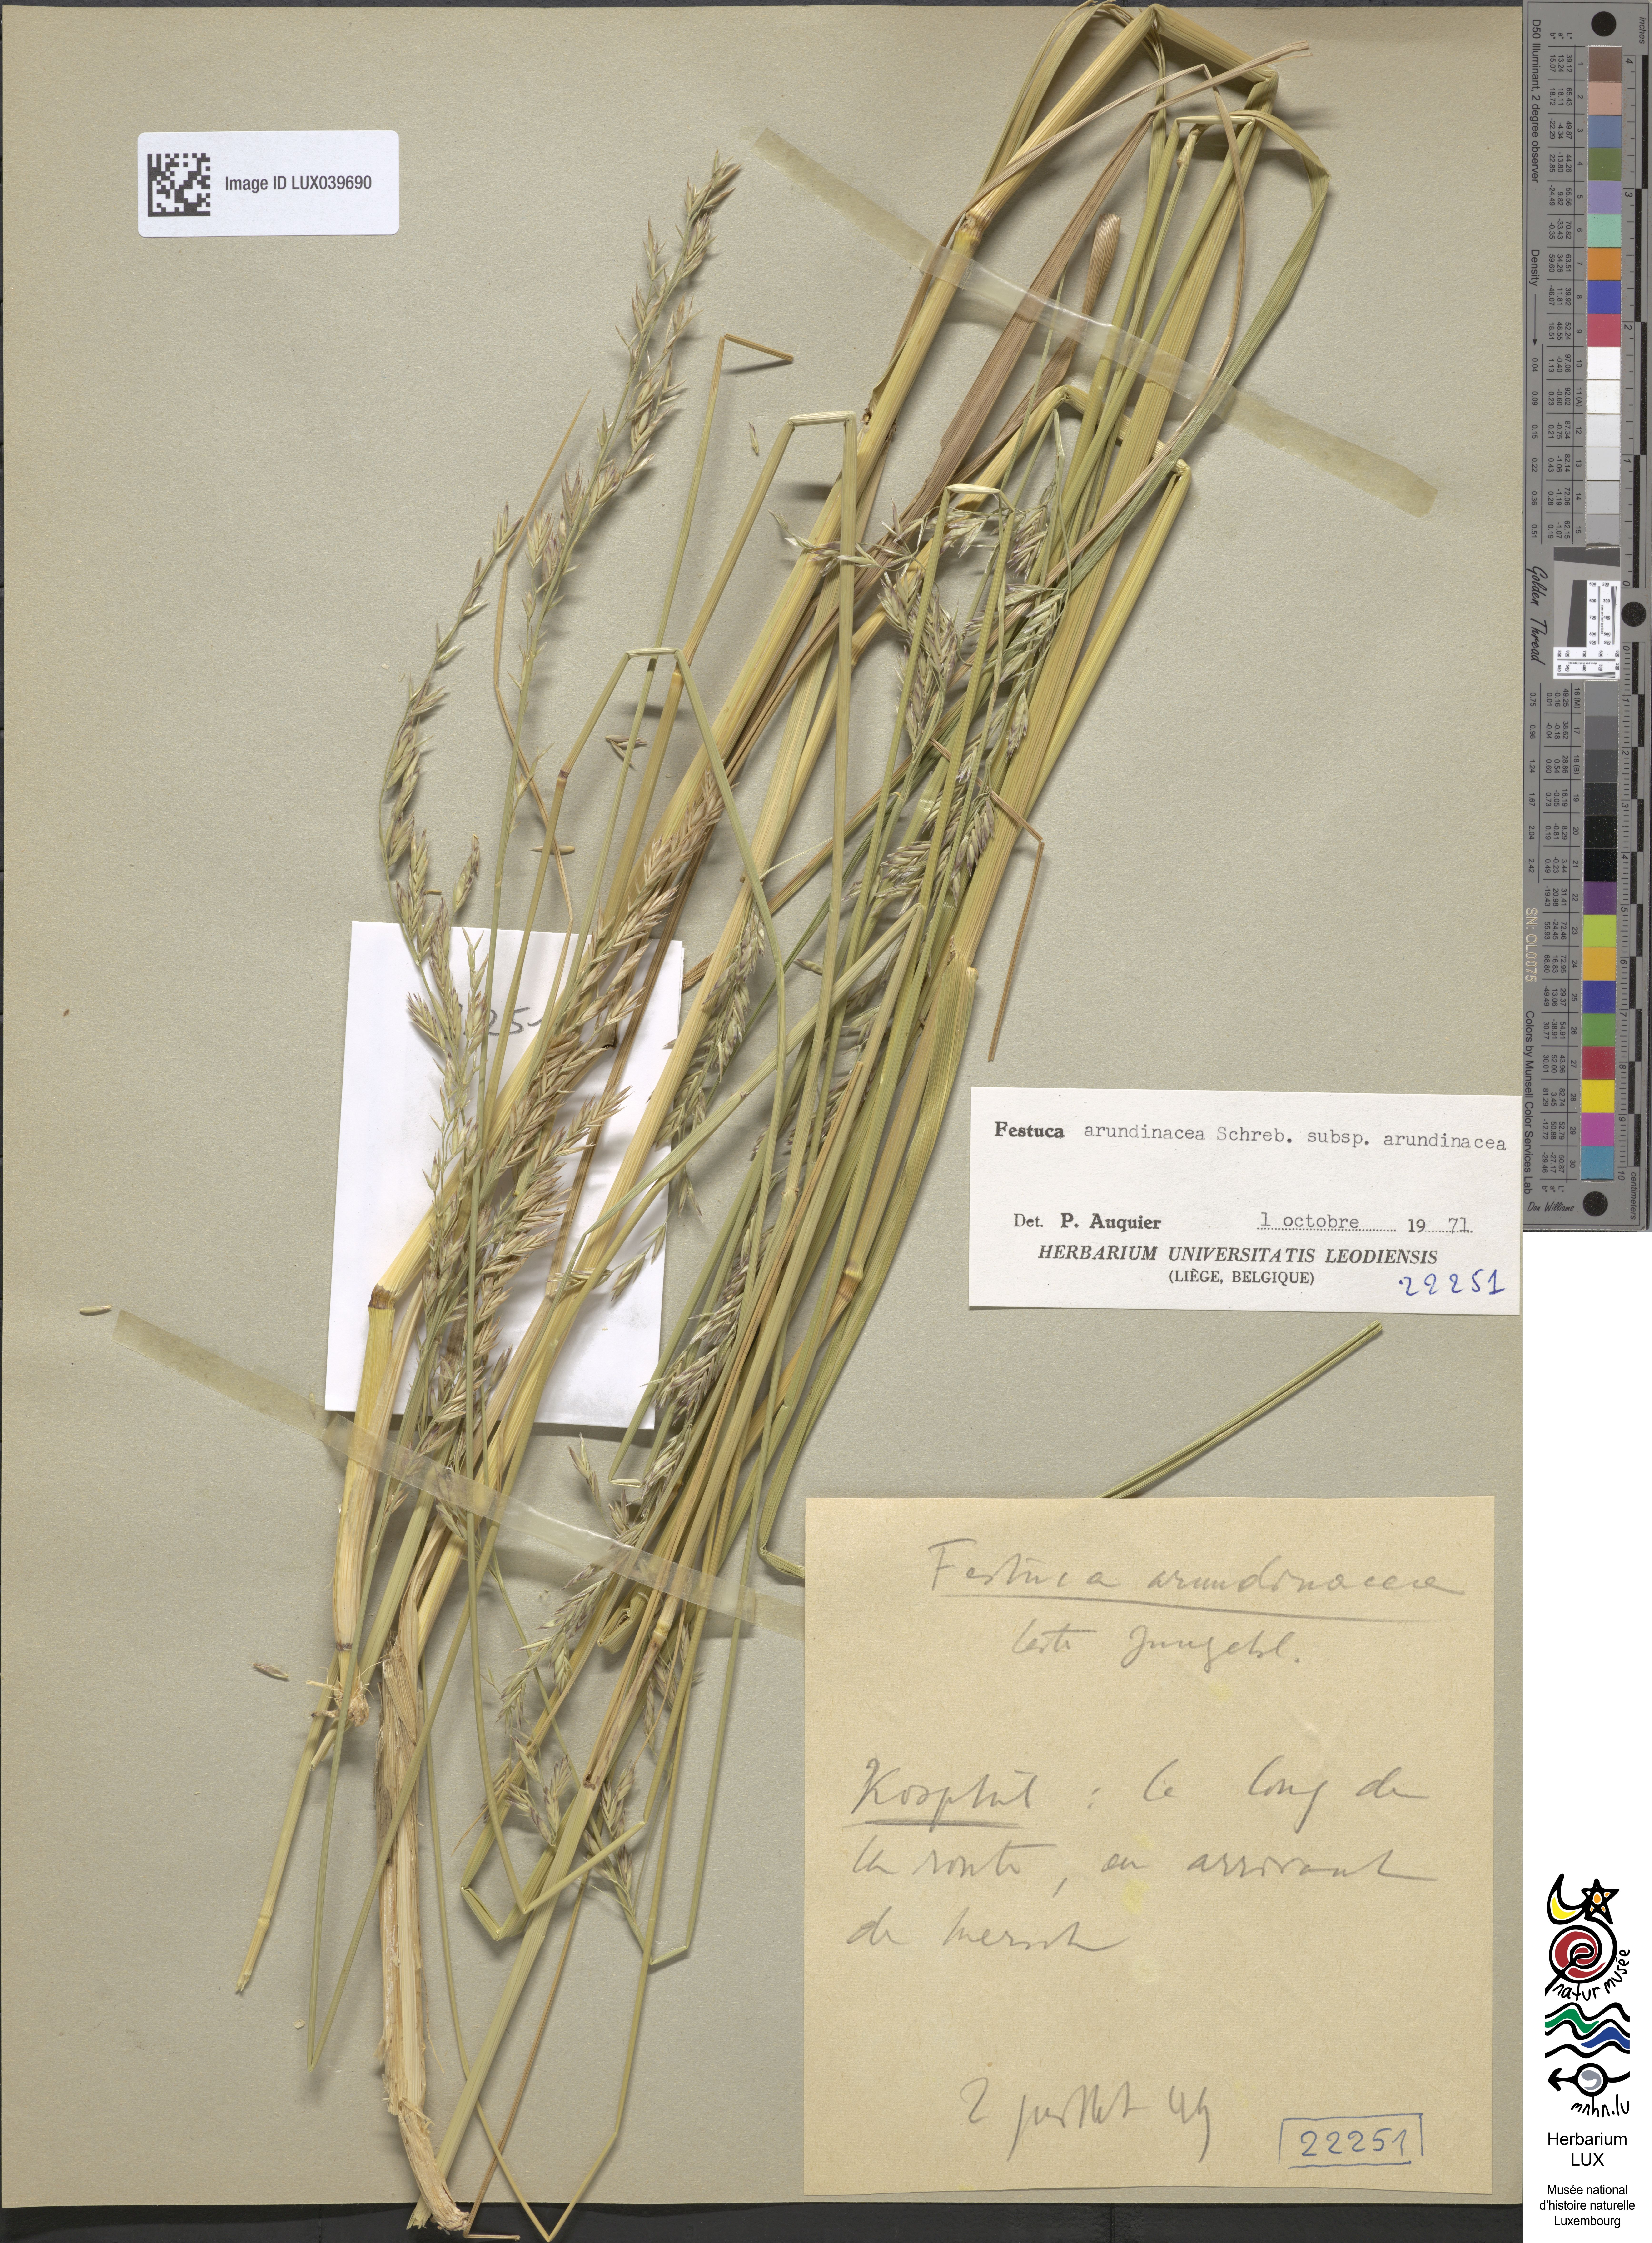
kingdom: Plantae
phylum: Tracheophyta
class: Liliopsida
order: Poales
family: Poaceae
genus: Lolium
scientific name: Lolium arundinaceum
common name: Reed fescue
